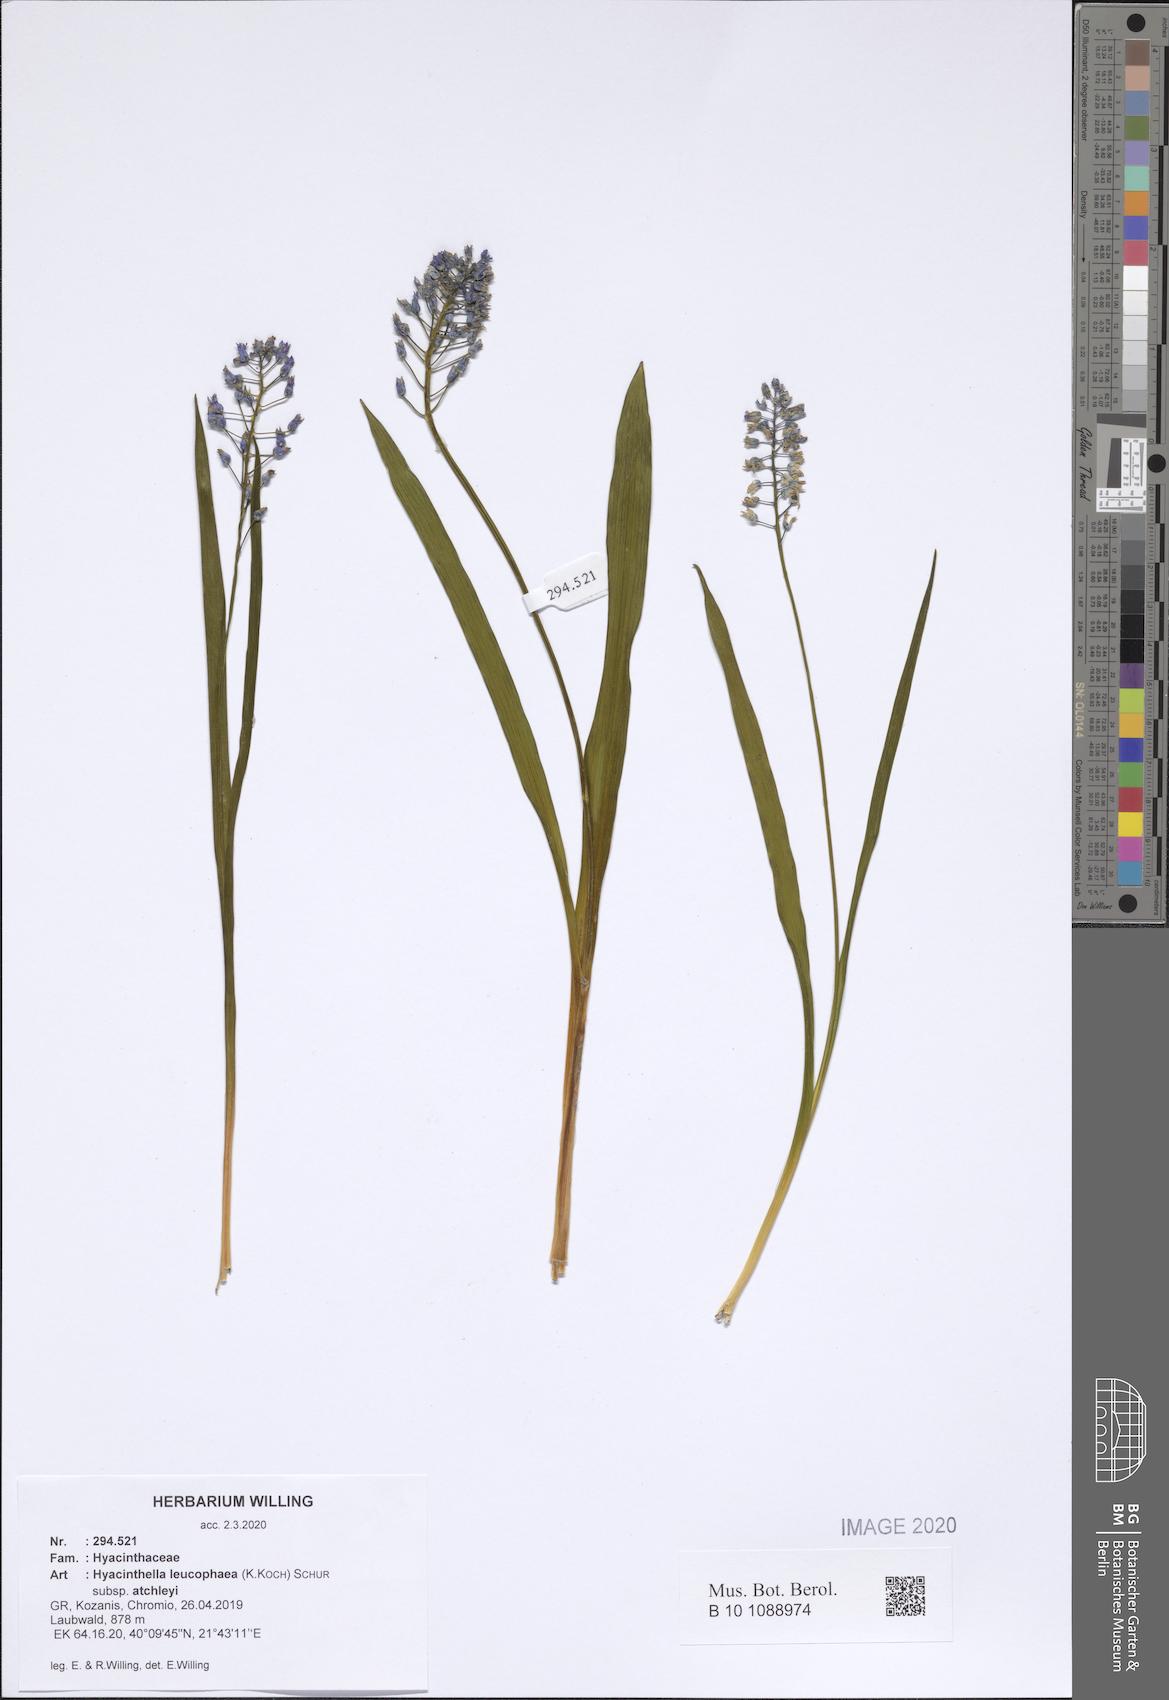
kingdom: Plantae
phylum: Tracheophyta
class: Liliopsida
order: Asparagales
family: Asparagaceae
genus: Hyacinthella
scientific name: Hyacinthella leucophaea
